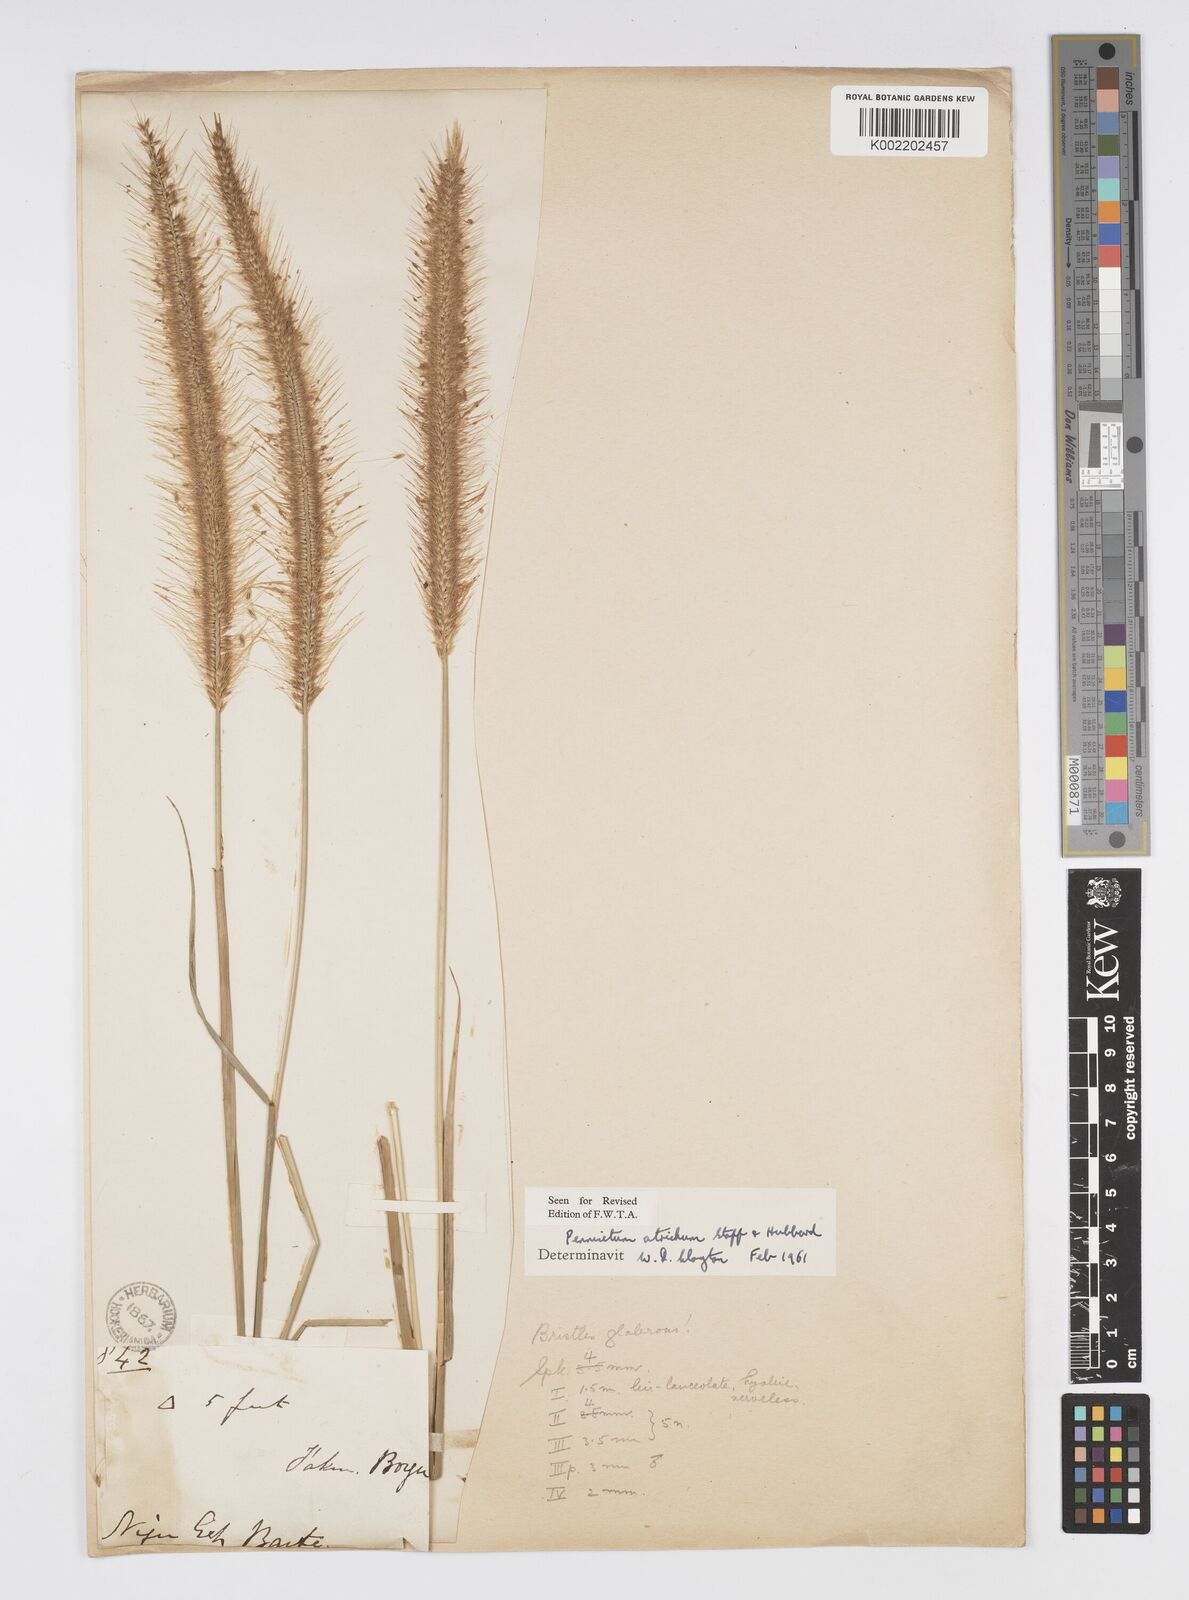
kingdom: Plantae
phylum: Tracheophyta
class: Liliopsida
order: Poales
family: Poaceae
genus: Cenchrus
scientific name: Cenchrus setosus
